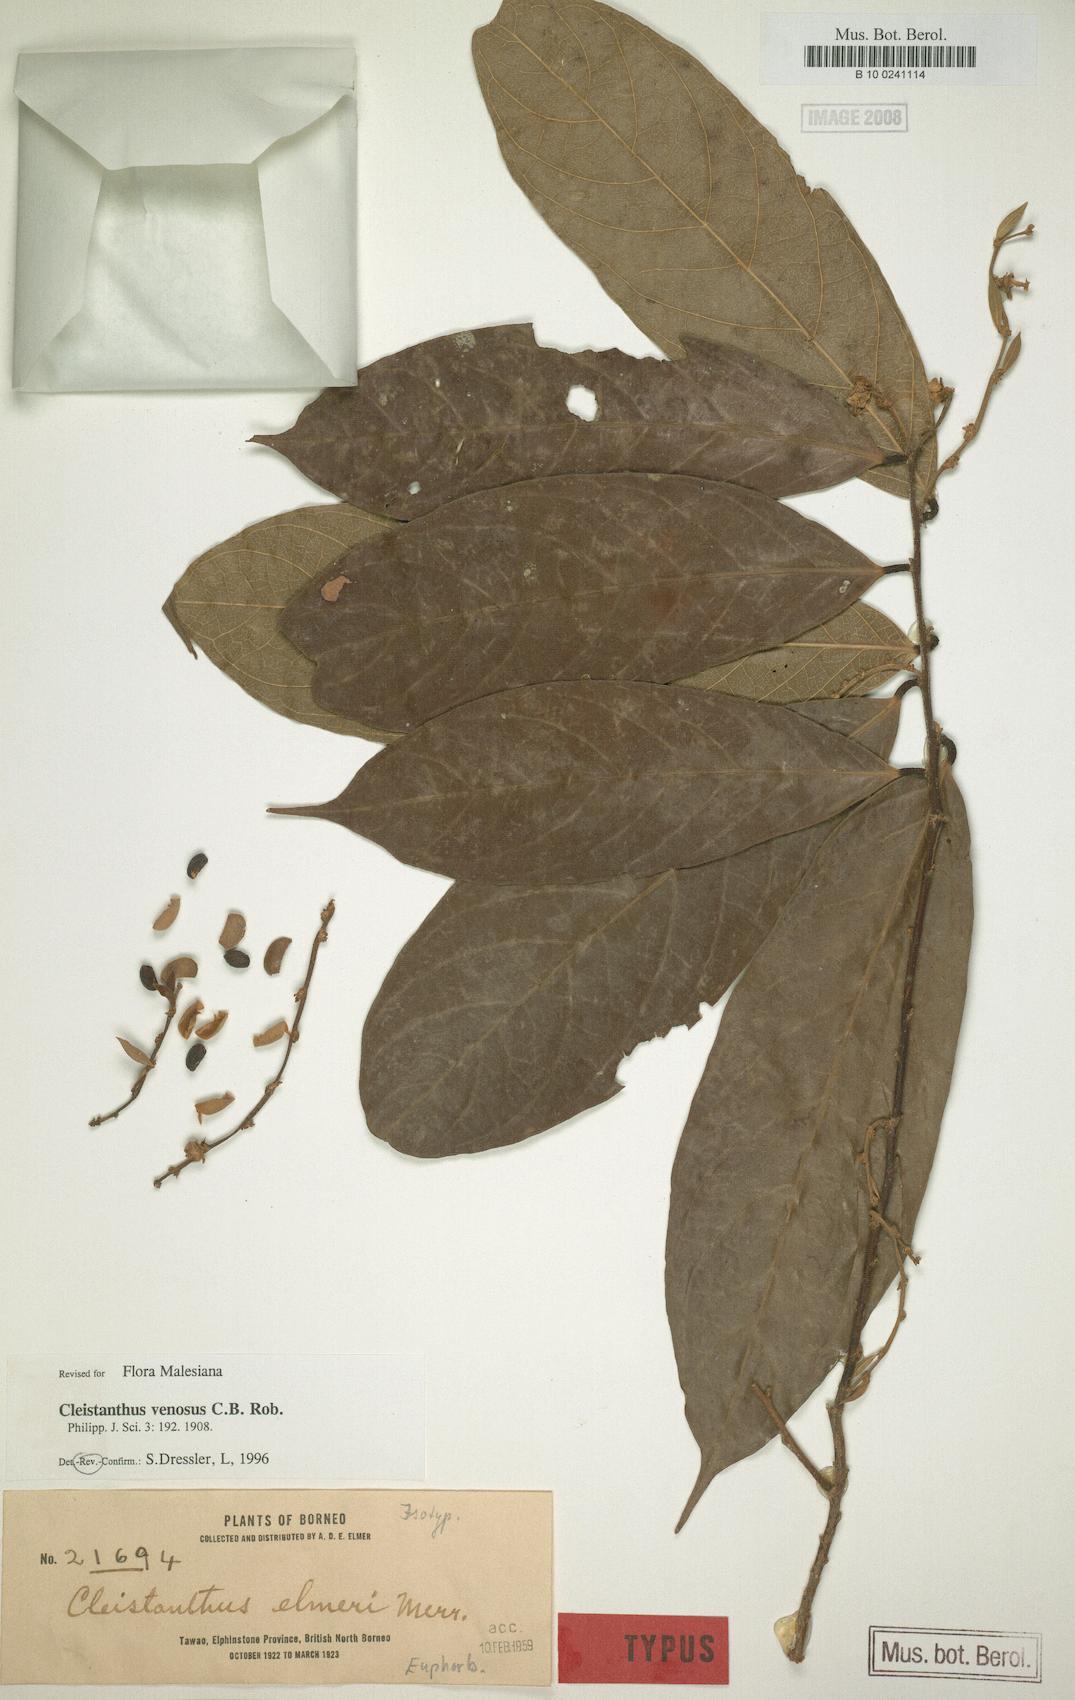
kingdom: Plantae
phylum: Tracheophyta
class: Magnoliopsida
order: Malpighiales
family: Phyllanthaceae
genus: Cleistanthus
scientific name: Cleistanthus venosus
